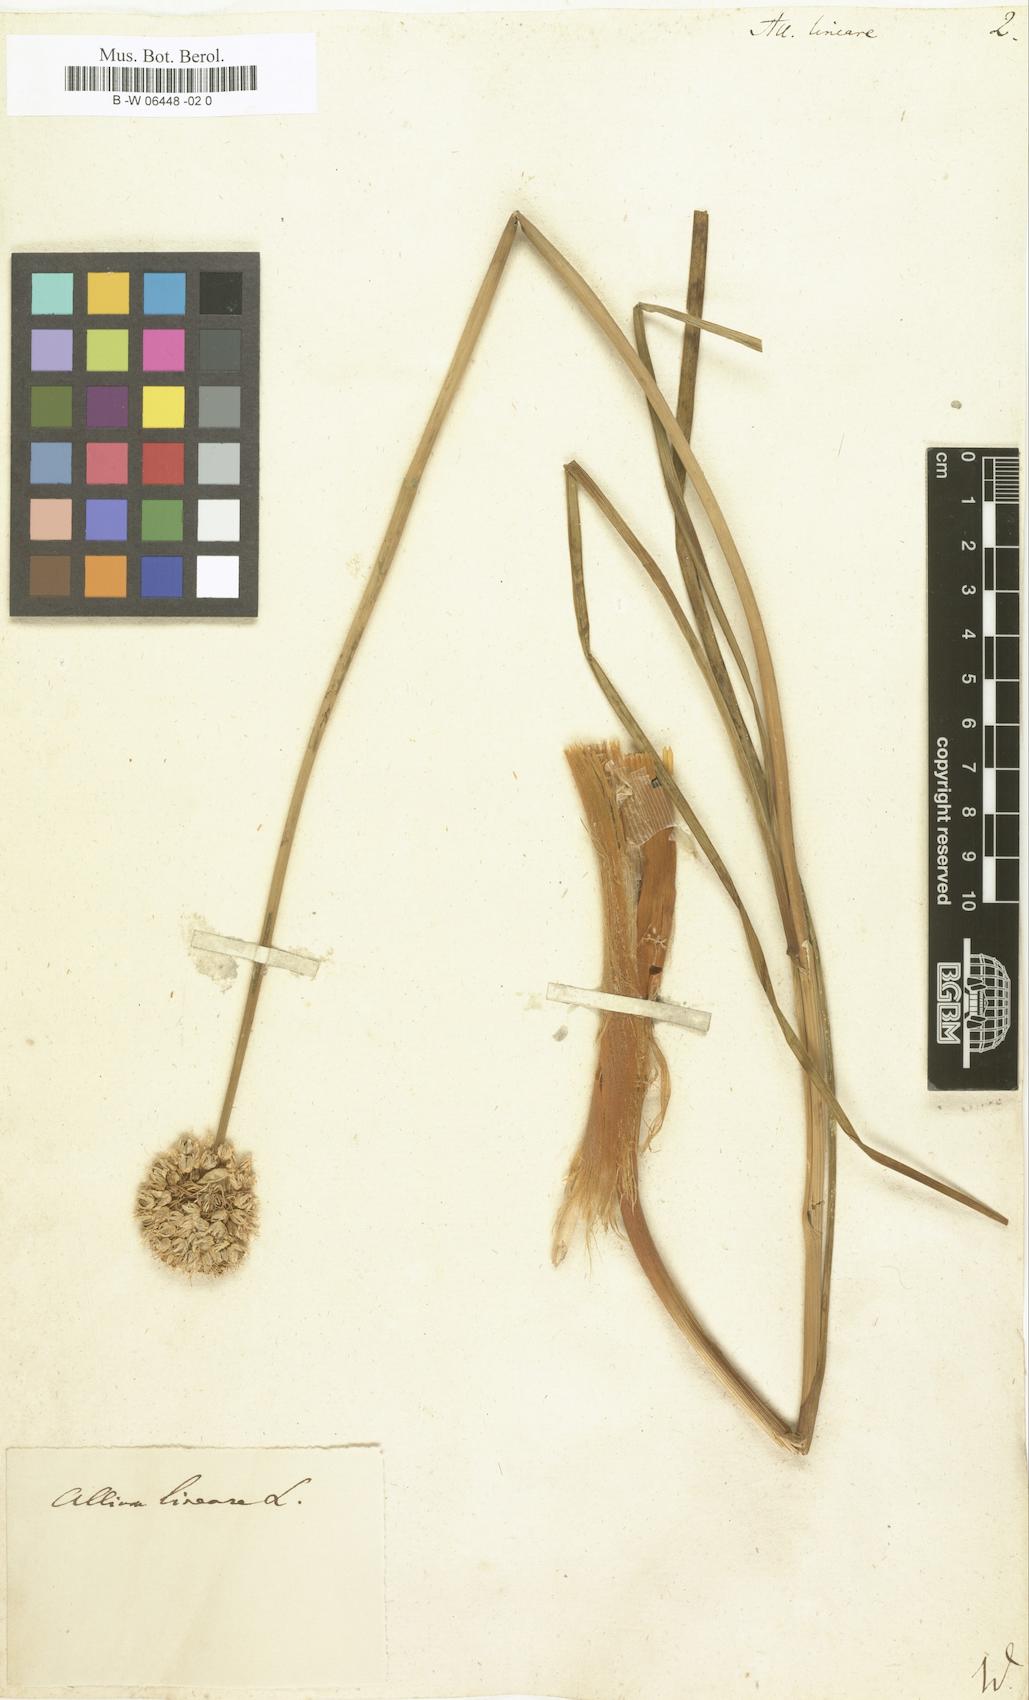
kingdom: Plantae
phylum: Tracheophyta
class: Liliopsida
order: Asparagales
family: Amaryllidaceae
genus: Allium
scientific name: Allium lineare
